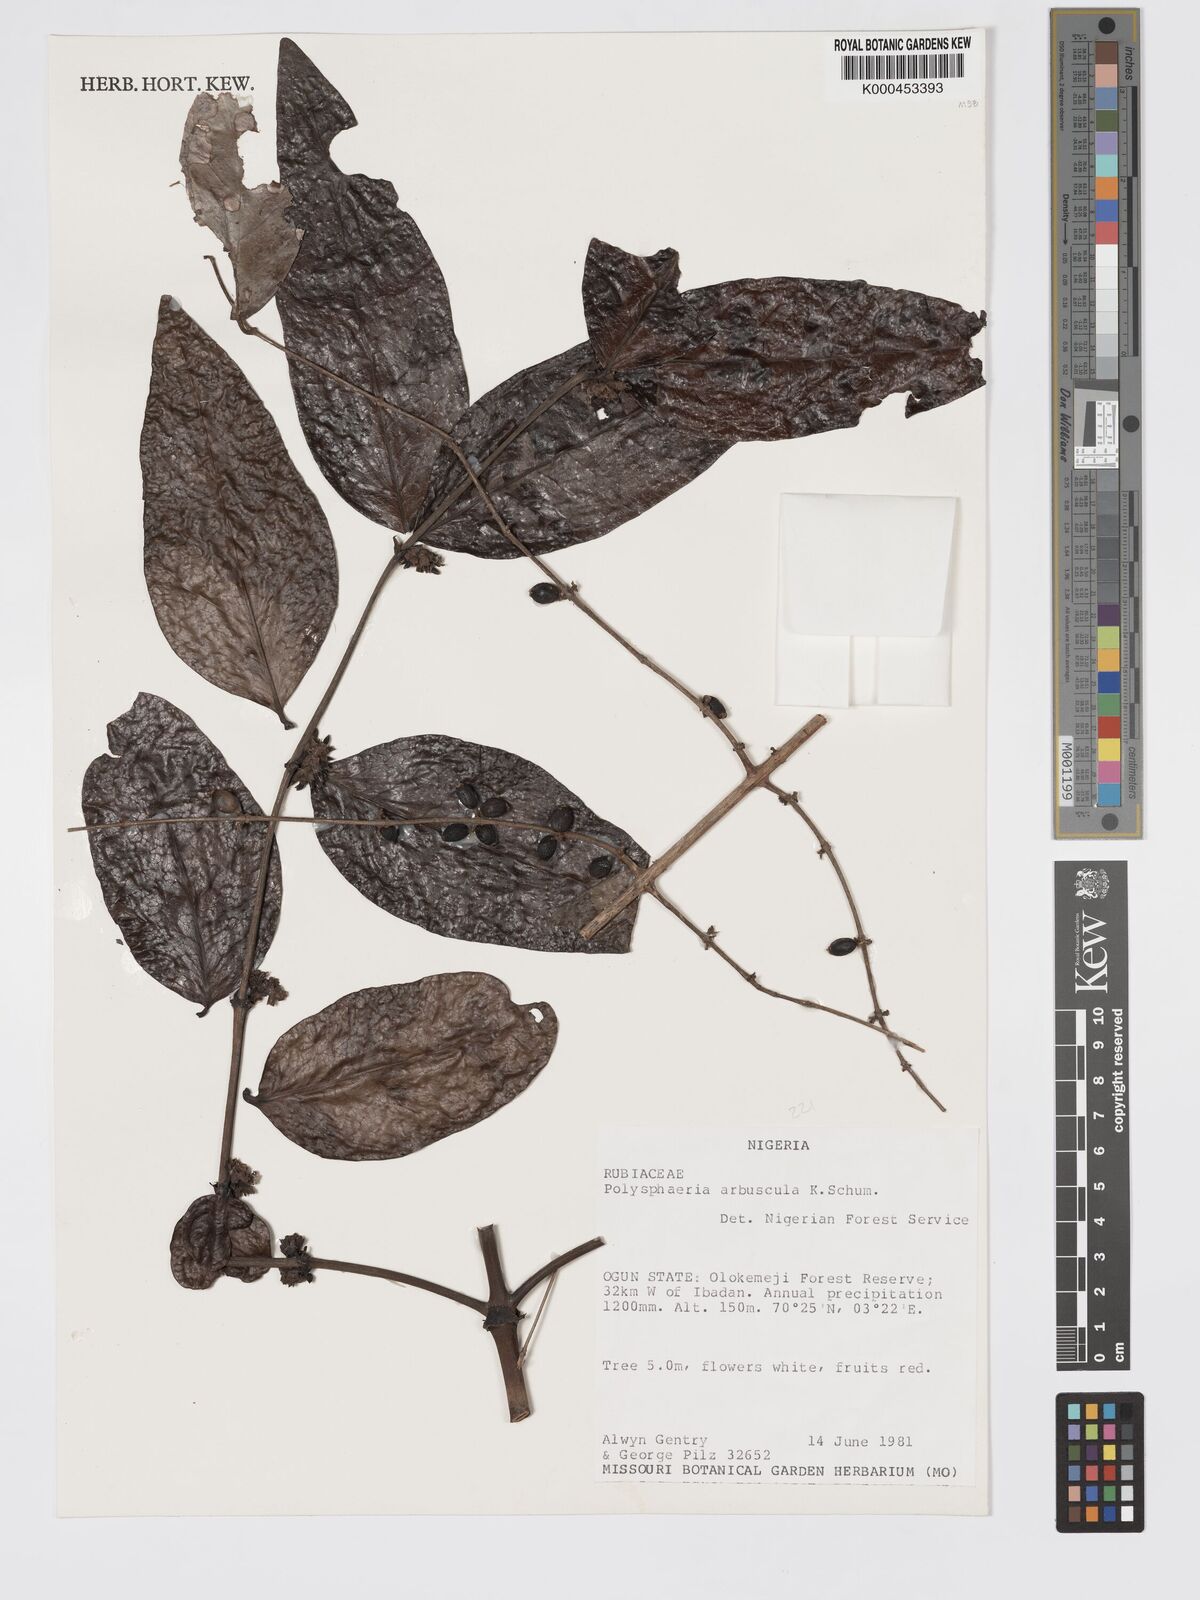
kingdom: Plantae
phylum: Tracheophyta
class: Magnoliopsida
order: Gentianales
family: Rubiaceae
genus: Polysphaeria
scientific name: Polysphaeria arbuscula
